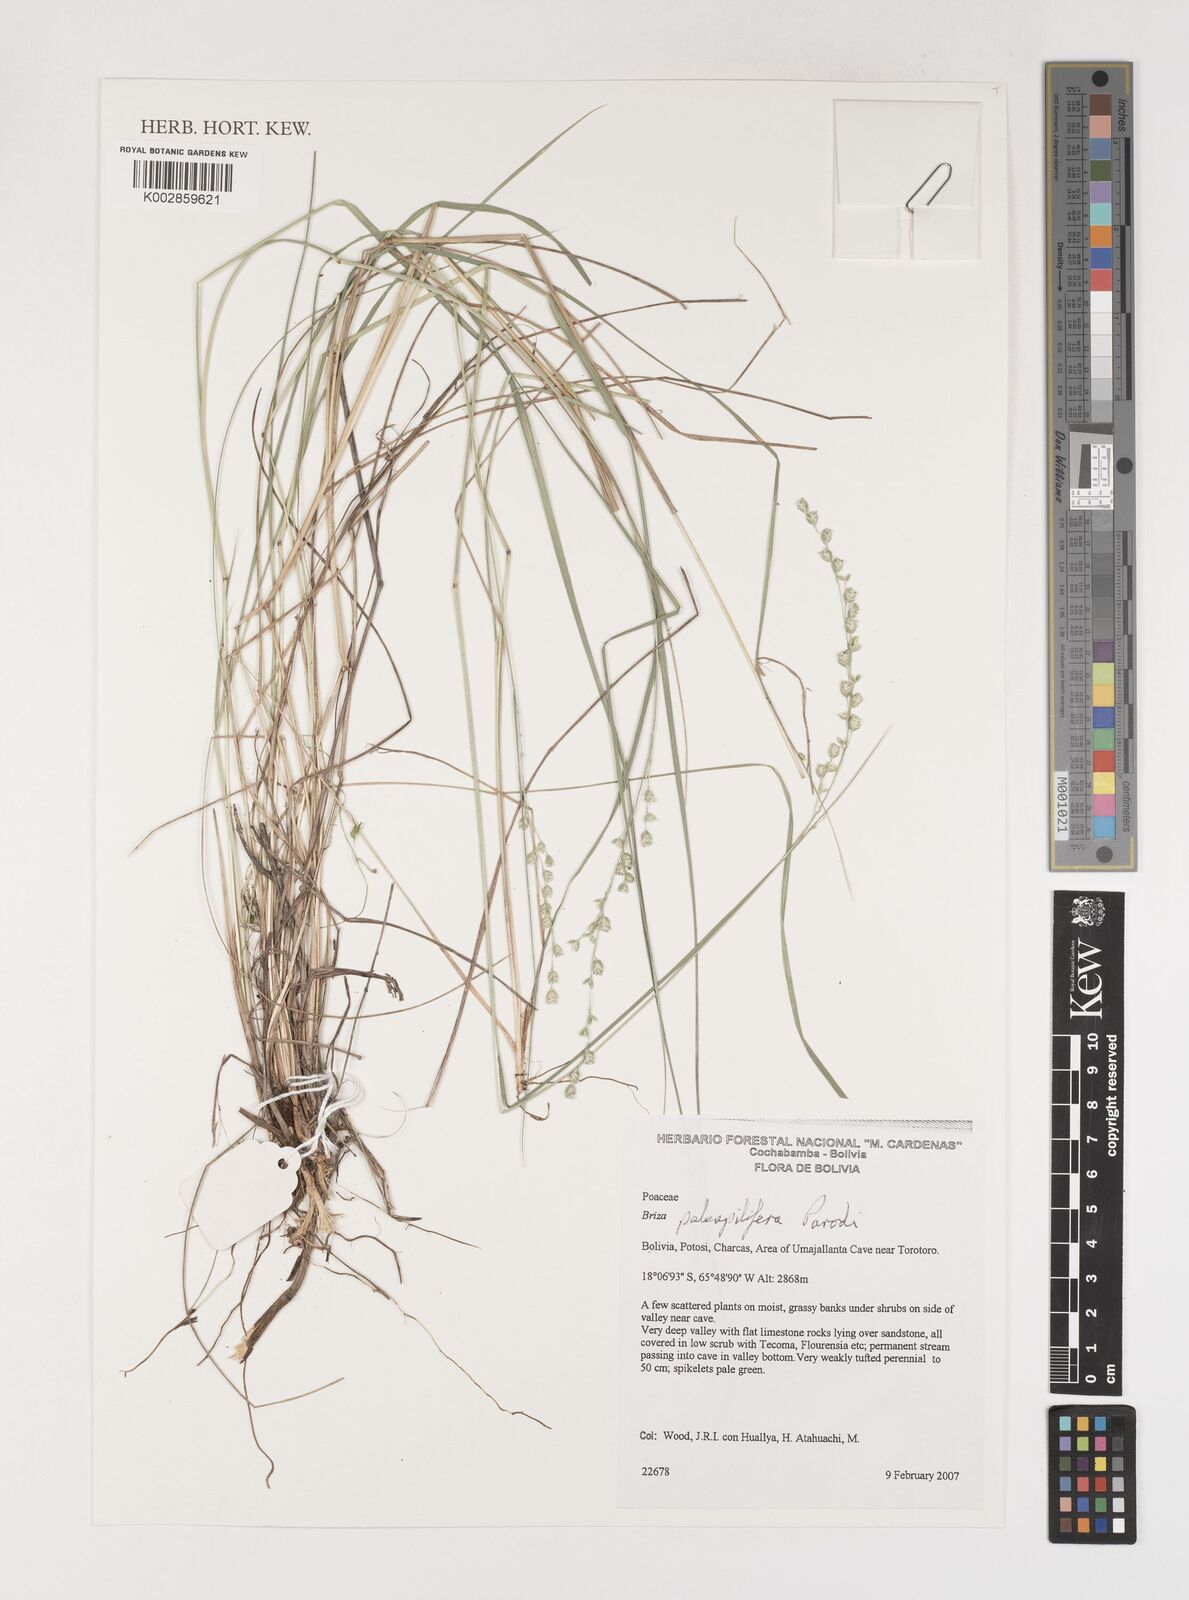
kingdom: Plantae
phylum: Tracheophyta
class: Liliopsida
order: Poales
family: Poaceae
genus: Chascolytrum
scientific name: Chascolytrum paleapiliferum
